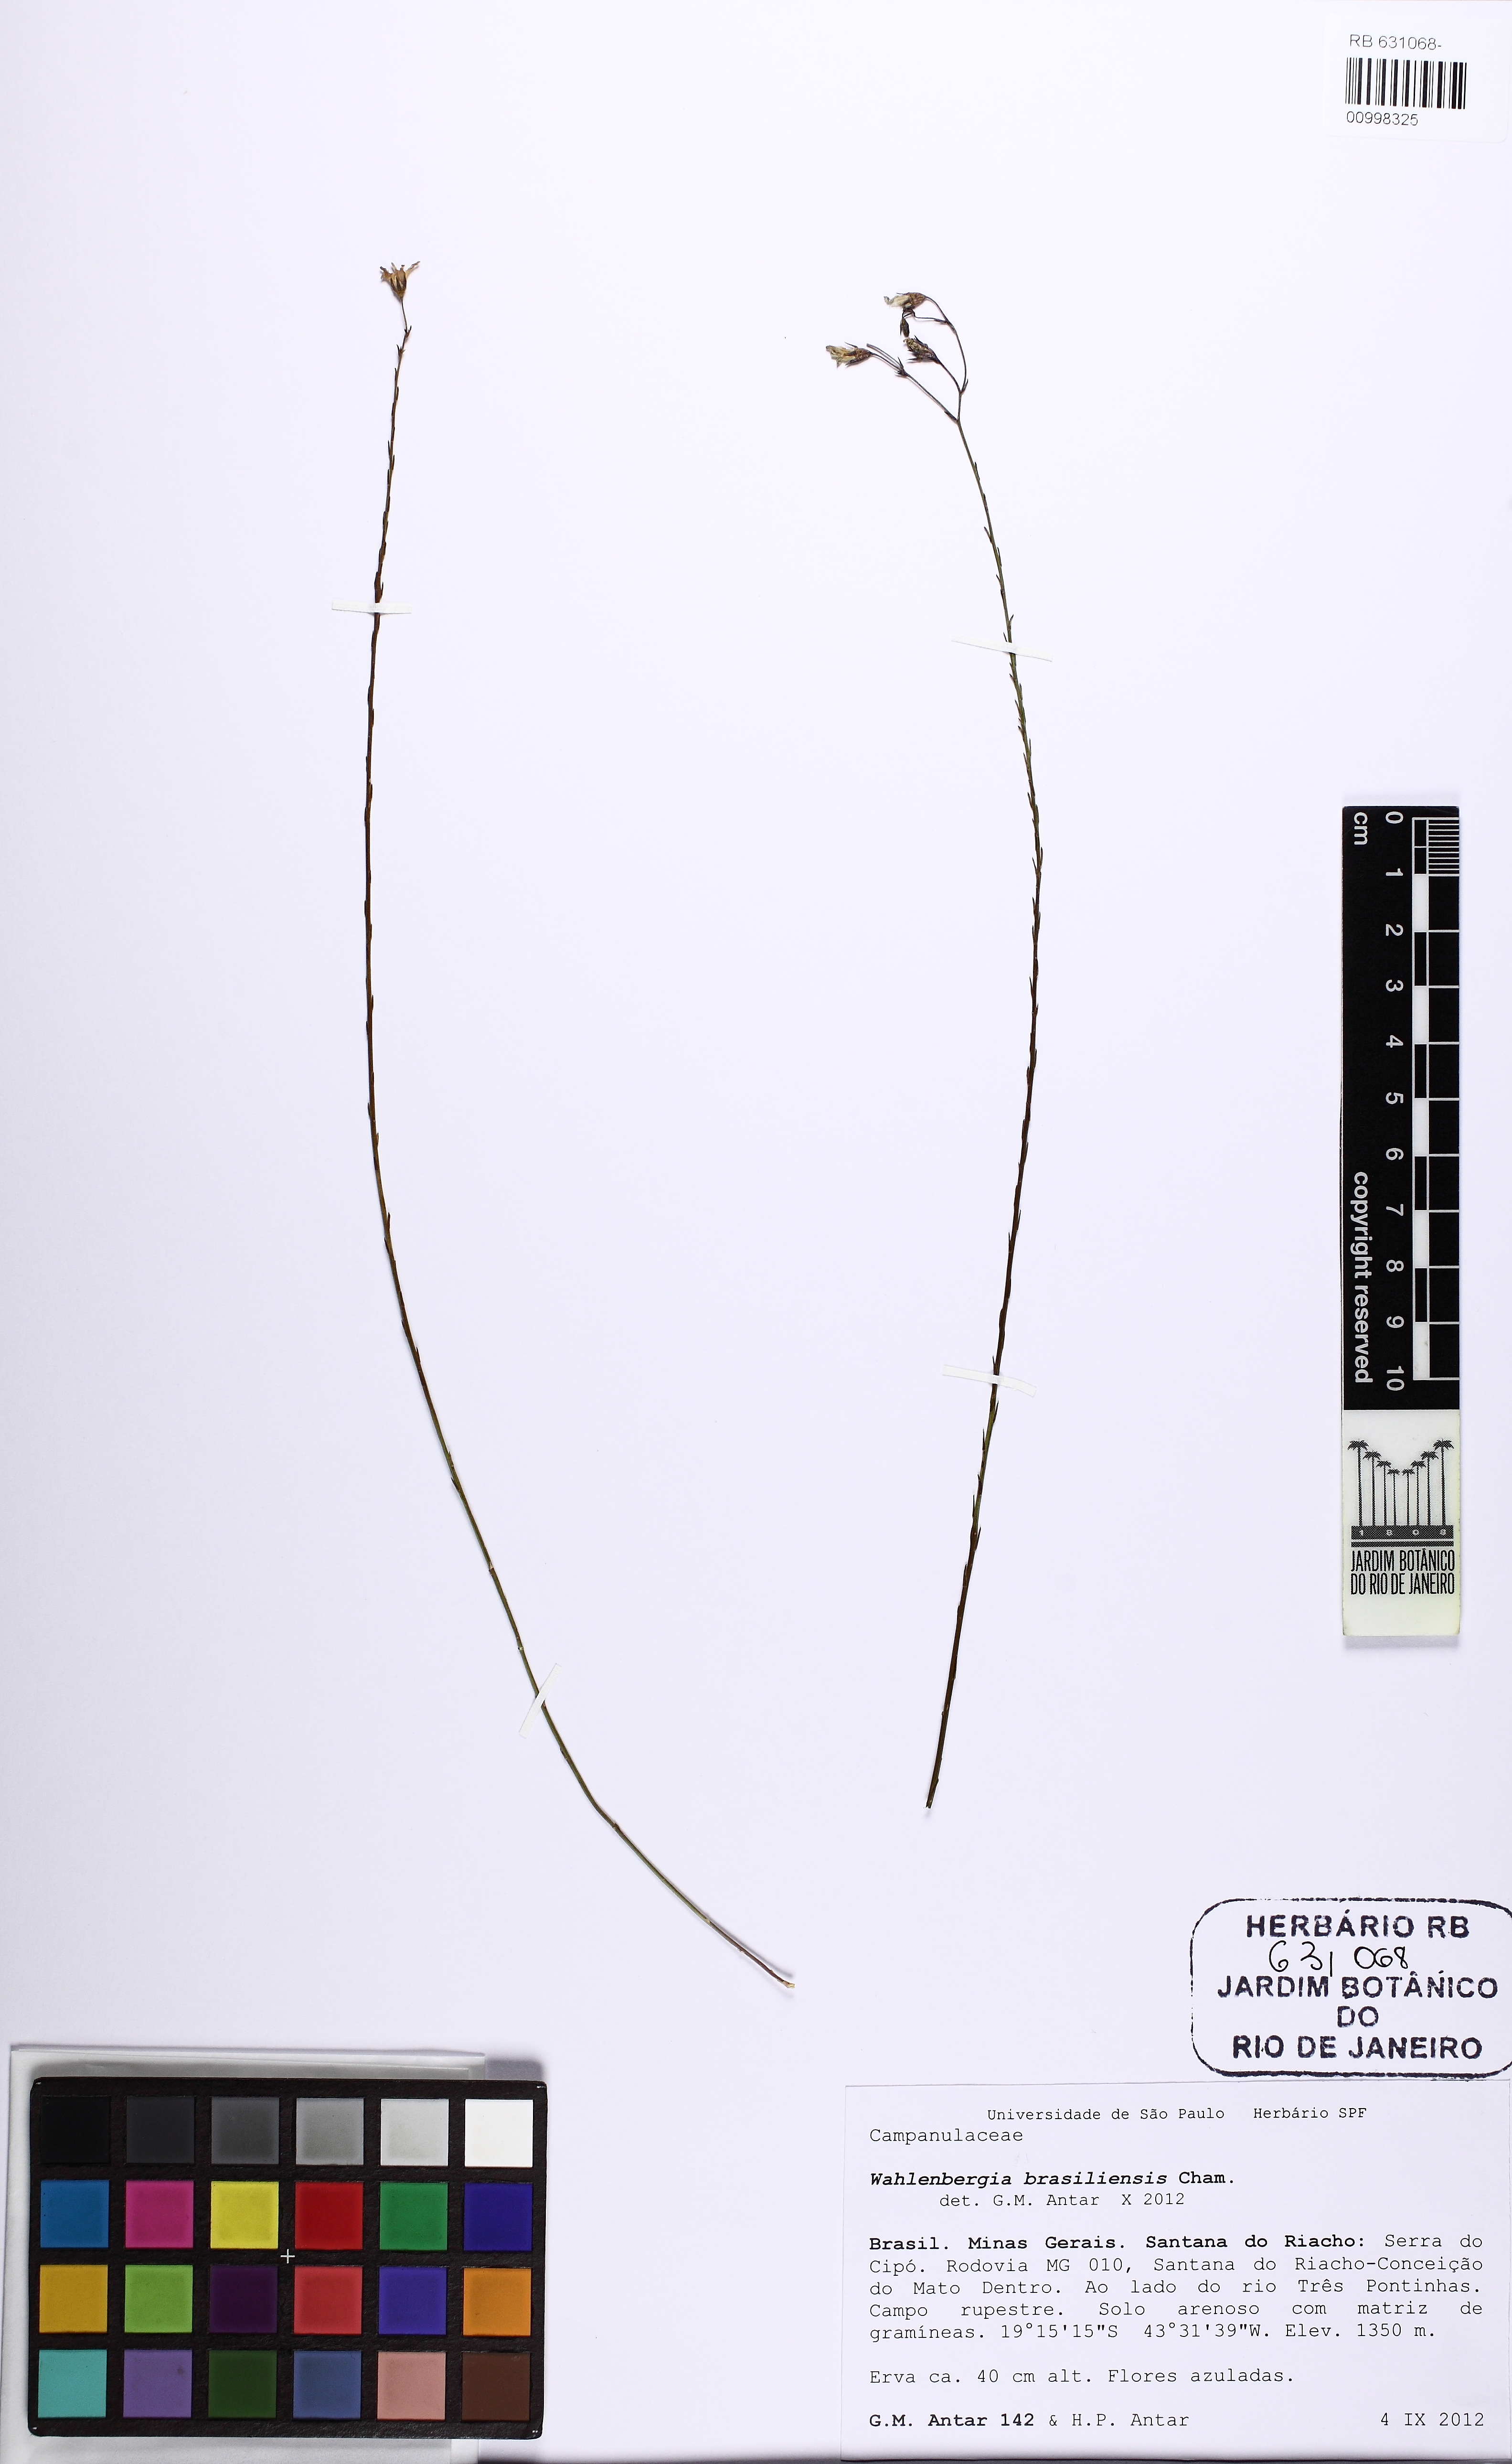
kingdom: Plantae
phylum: Tracheophyta
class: Magnoliopsida
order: Asterales
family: Campanulaceae
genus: Wahlenbergia
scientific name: Wahlenbergia brasiliensis
